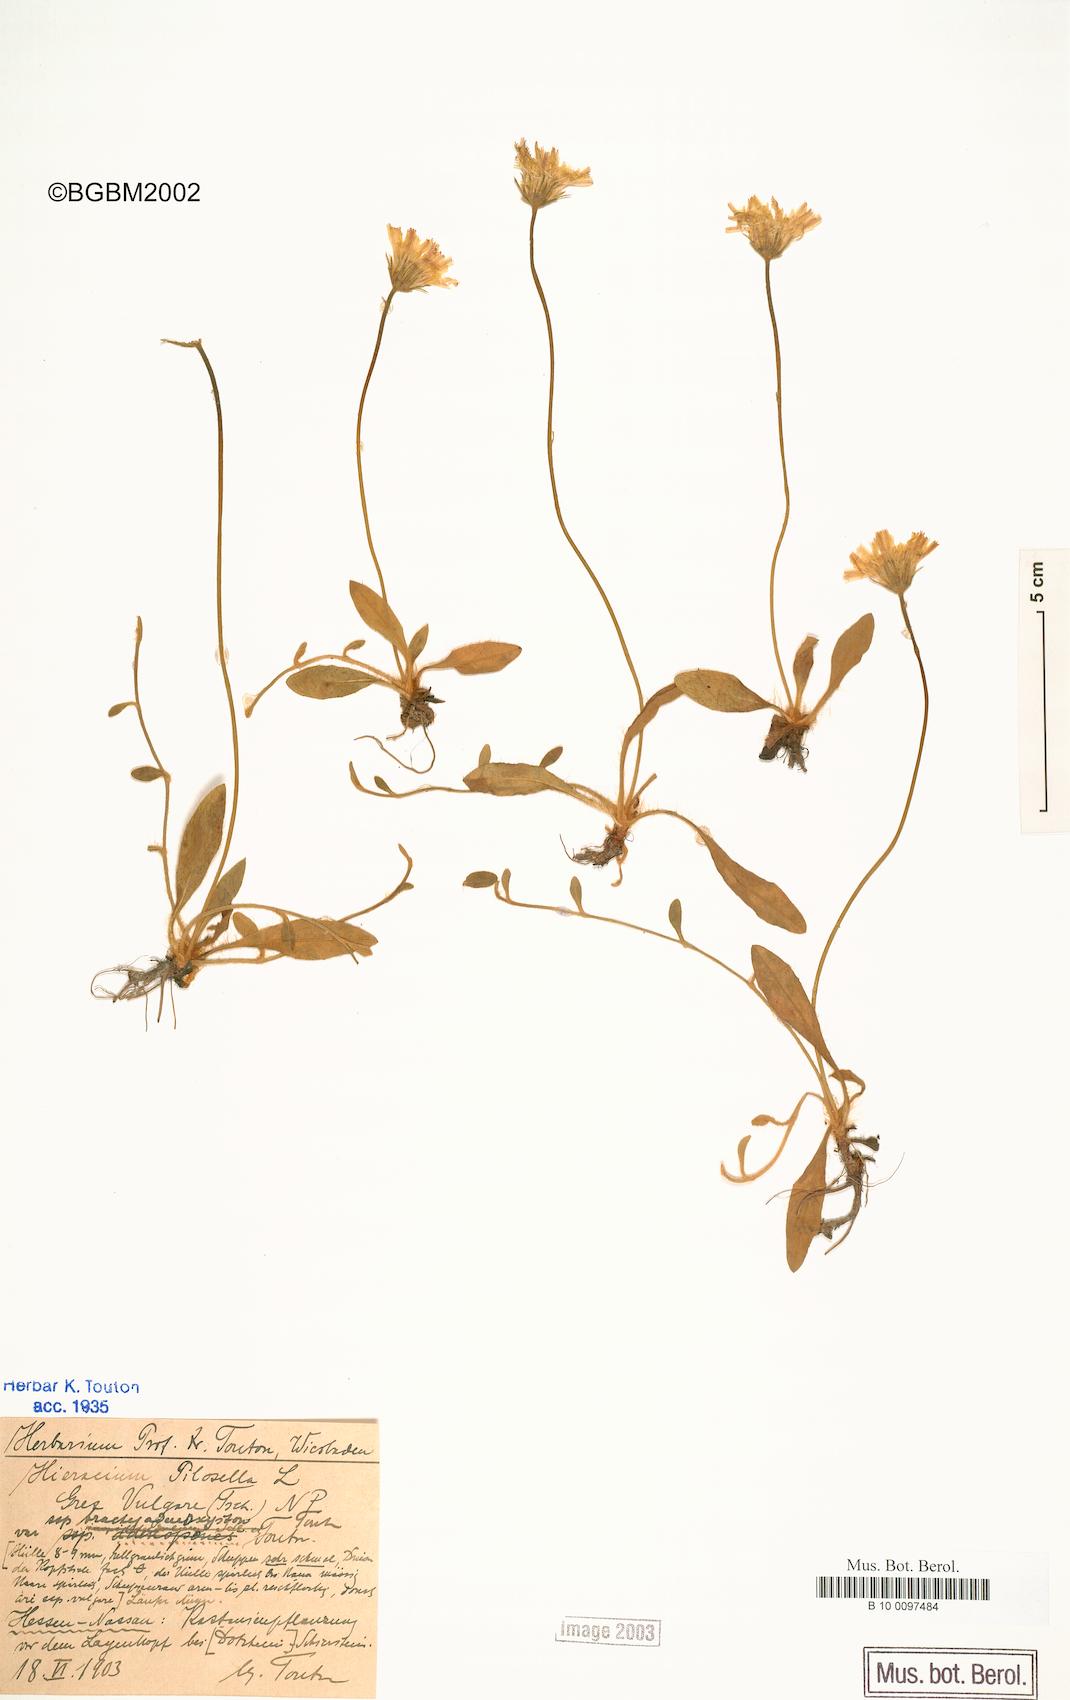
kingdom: Plantae
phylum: Tracheophyta
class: Magnoliopsida
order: Asterales
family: Asteraceae
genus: Pilosella
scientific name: Pilosella officinarum
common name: Mouse-ear hawkweed
